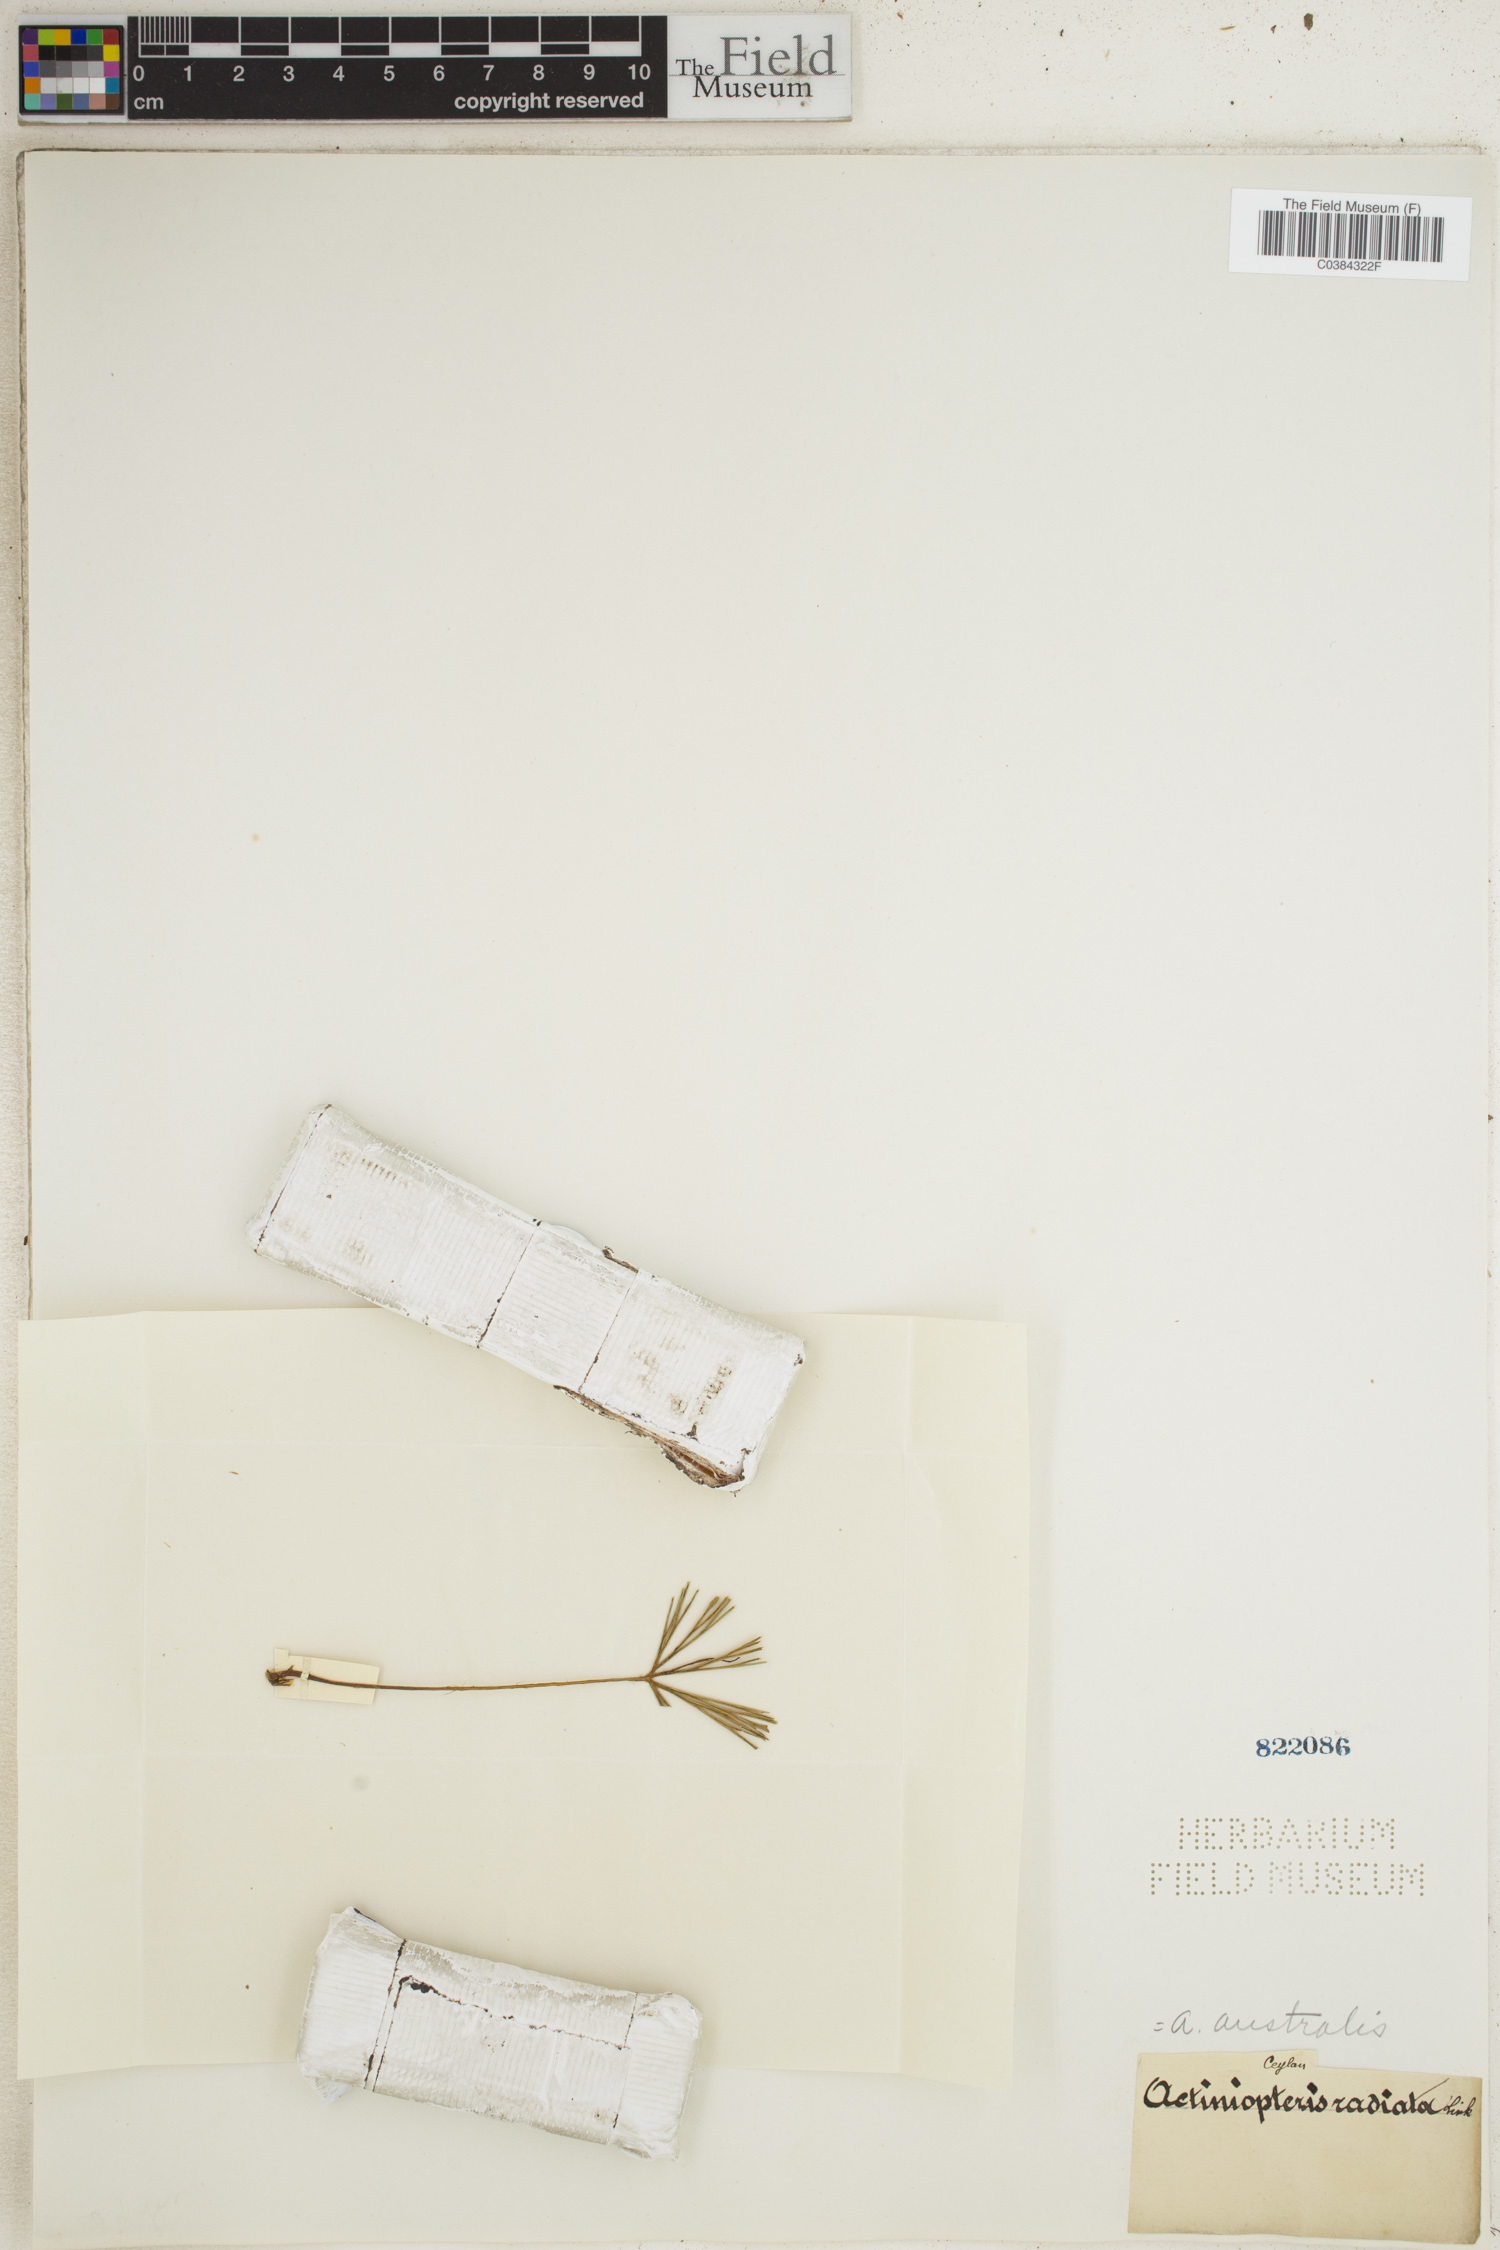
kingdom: Plantae
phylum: Tracheophyta
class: Polypodiopsida
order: Polypodiales
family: Pteridaceae
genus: Actiniopteris
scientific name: Actiniopteris australis
